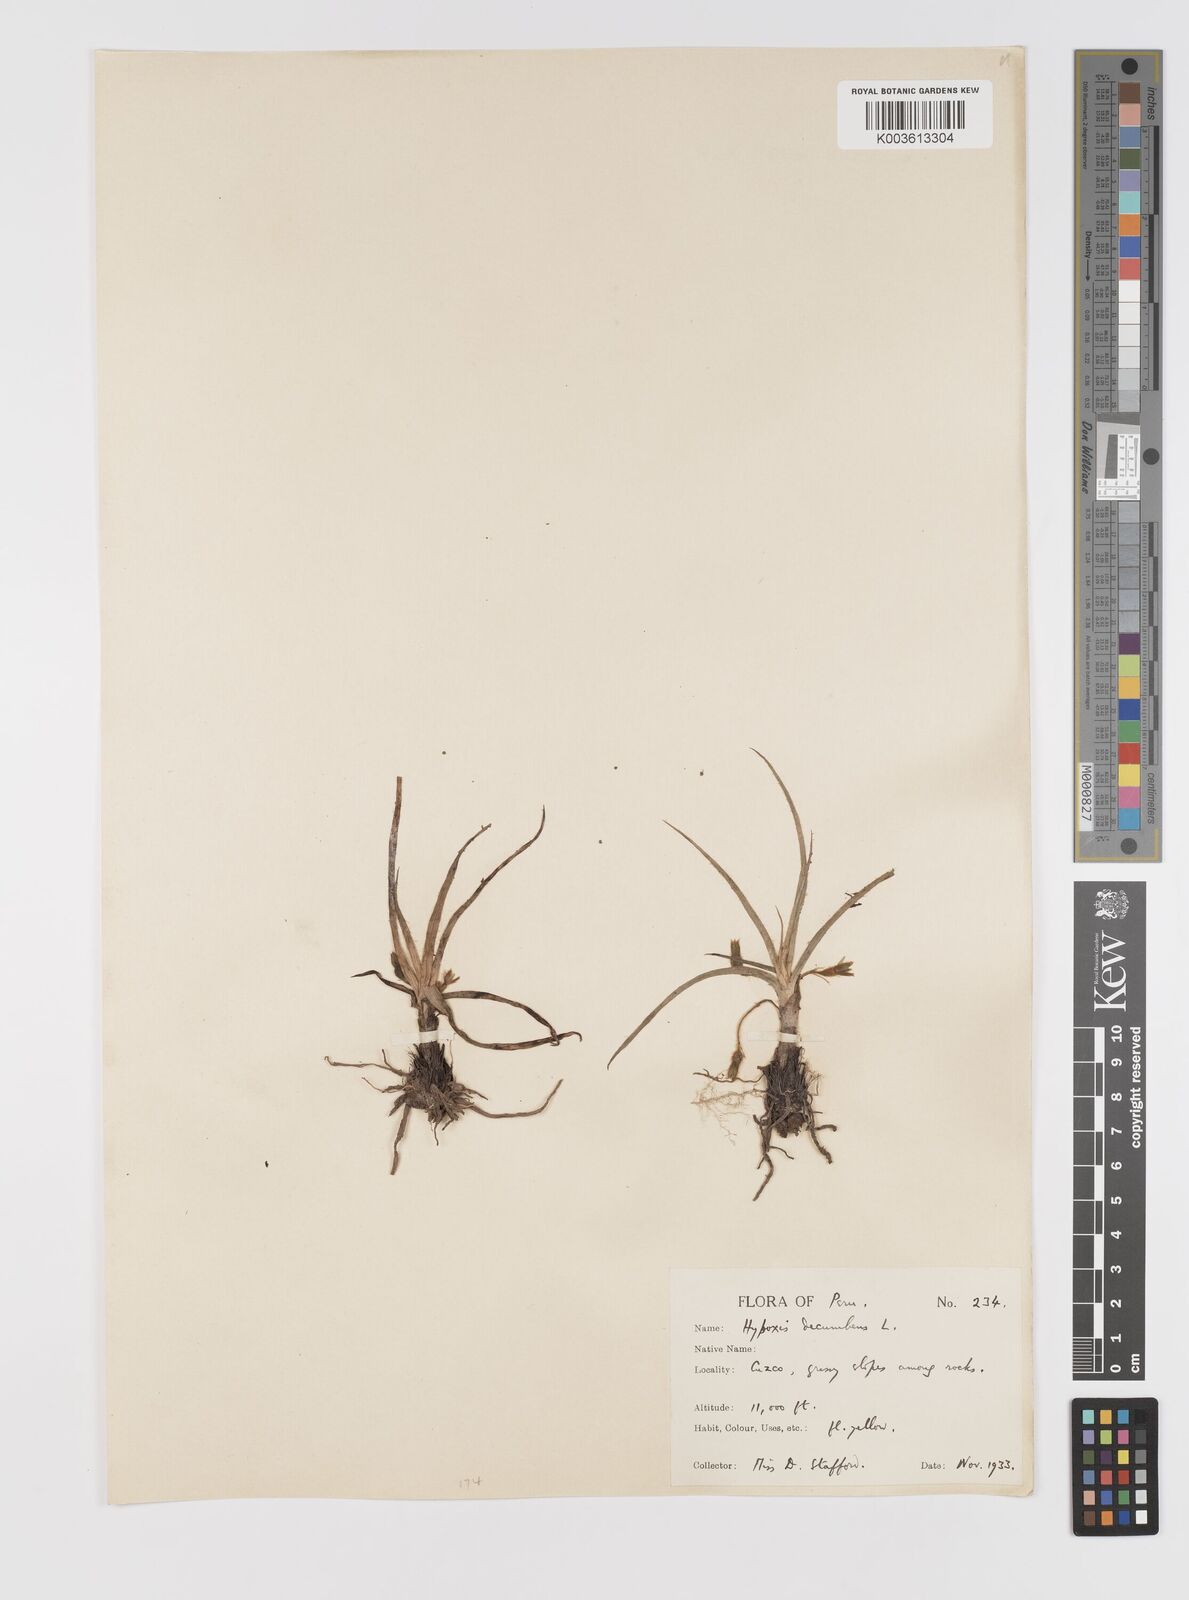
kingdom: Plantae
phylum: Tracheophyta
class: Liliopsida
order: Asparagales
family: Hypoxidaceae
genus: Hypoxis
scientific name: Hypoxis decumbens
